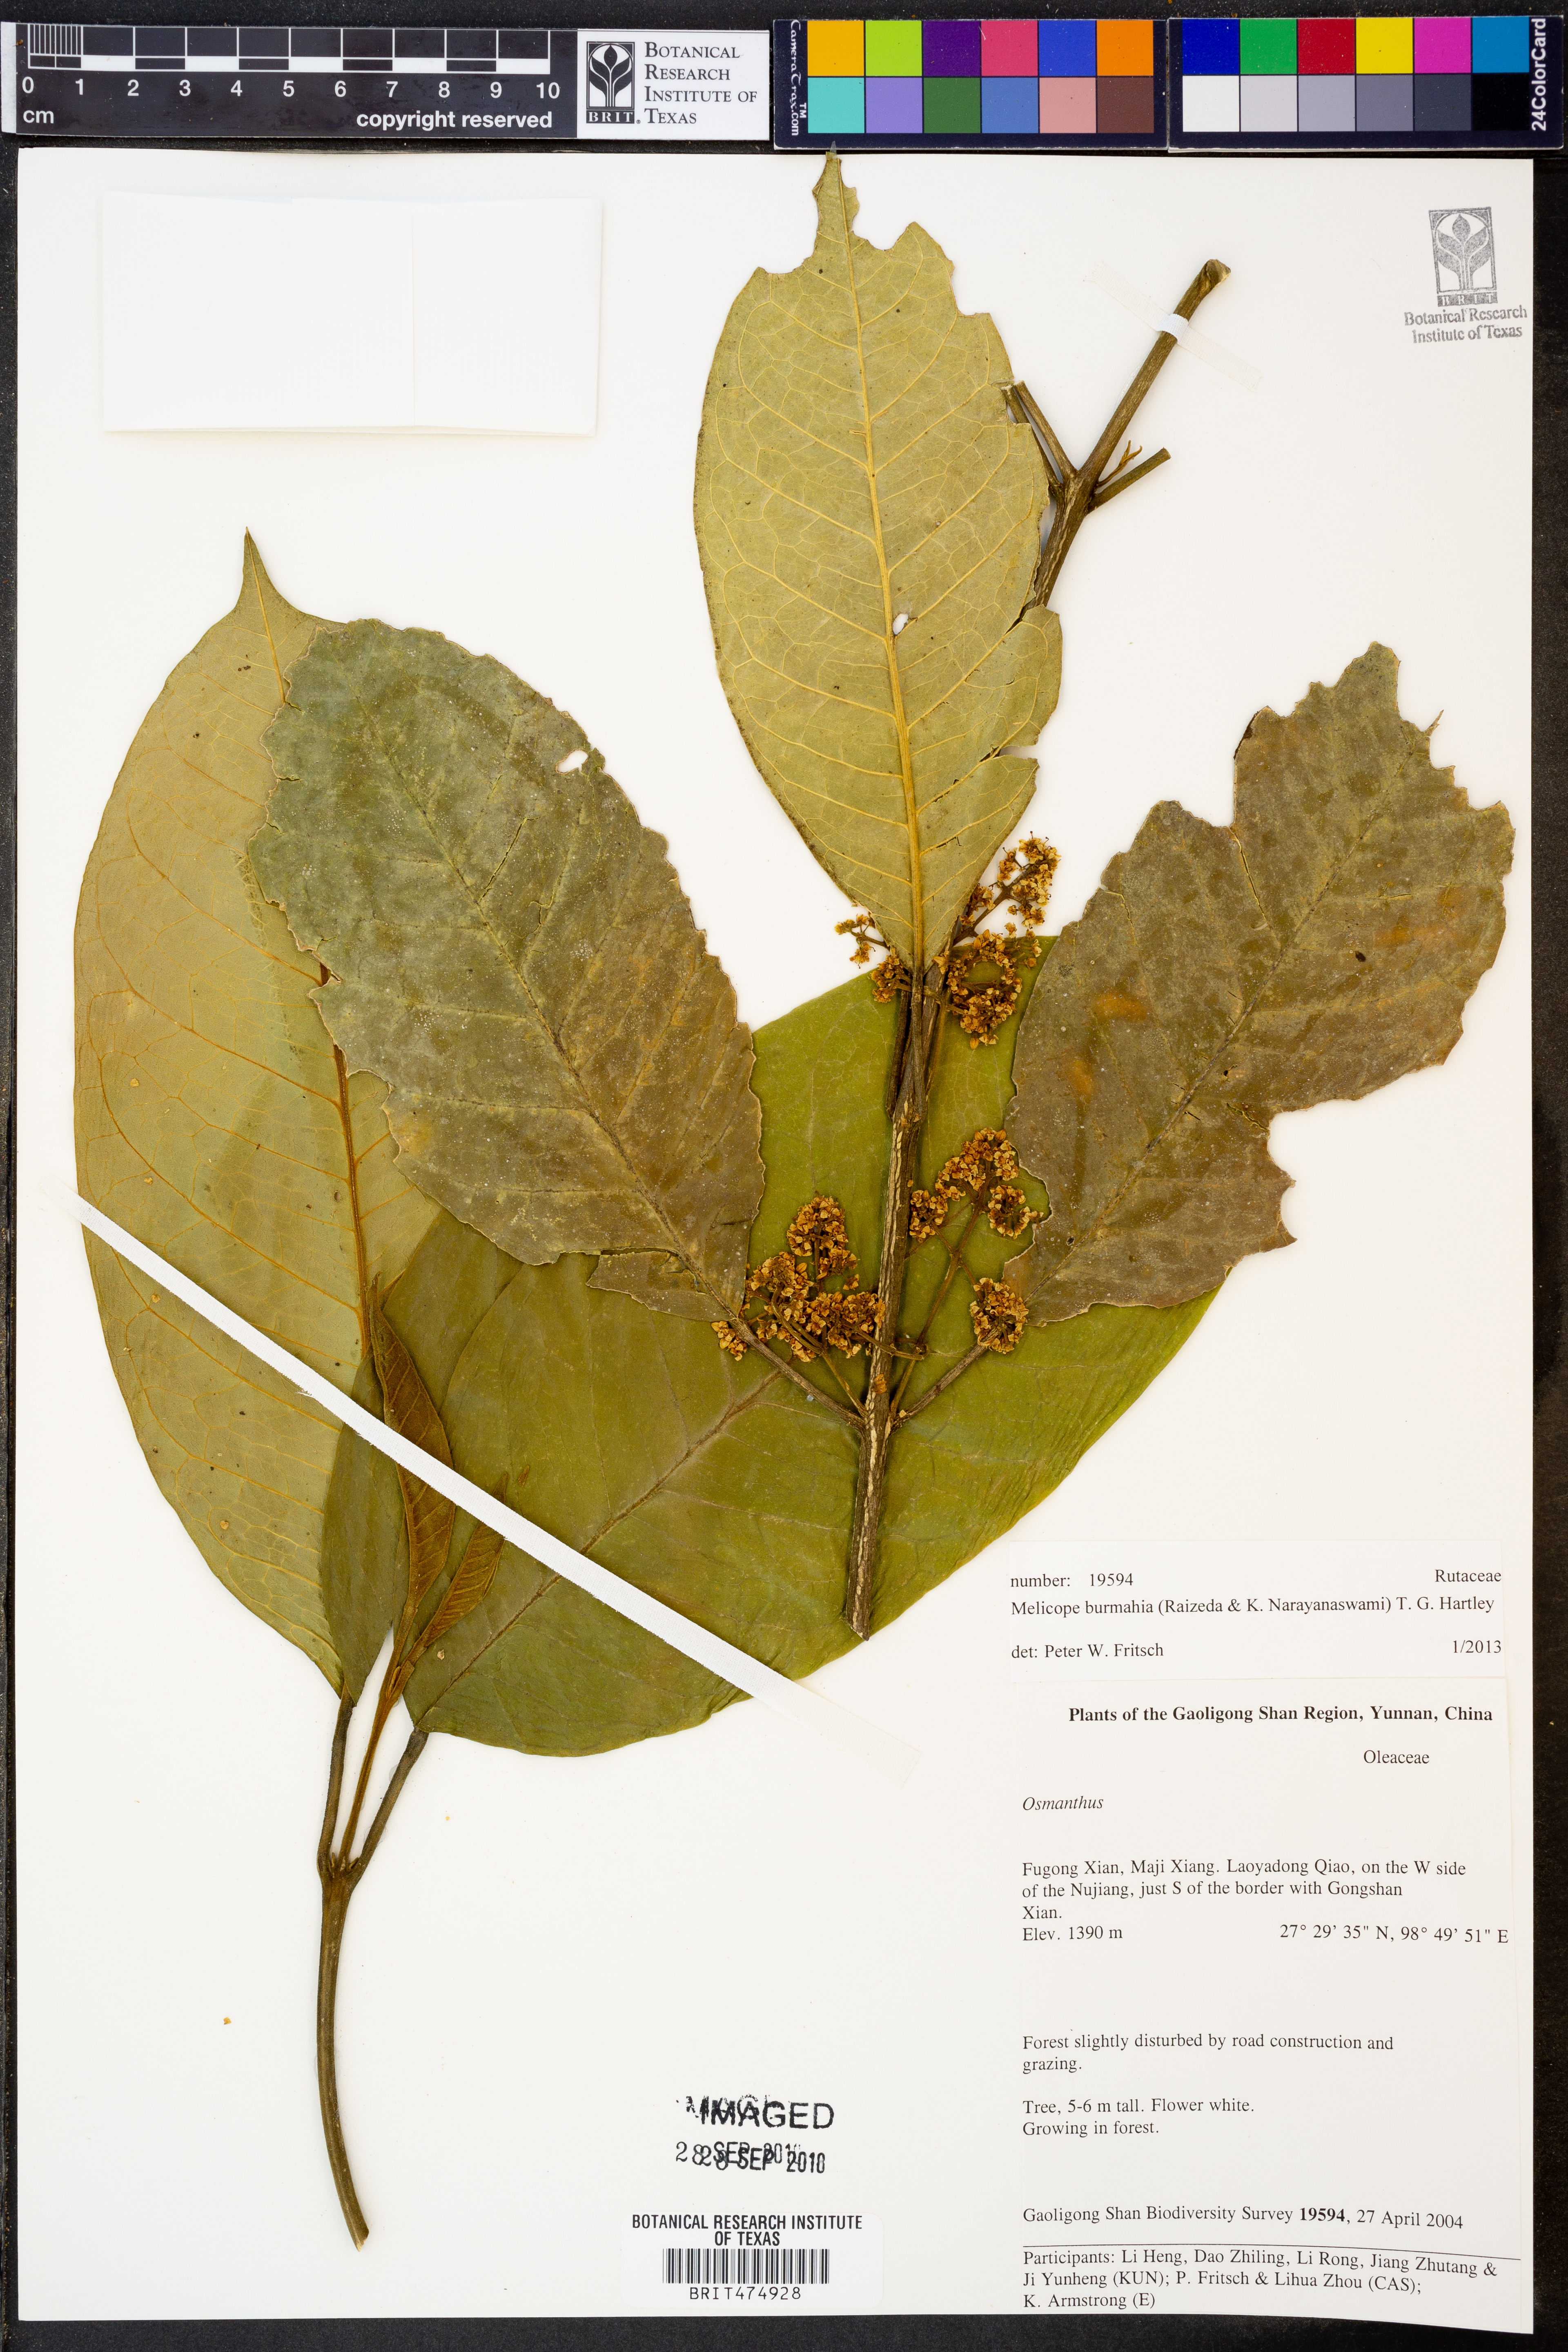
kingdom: Plantae
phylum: Tracheophyta
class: Magnoliopsida
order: Sapindales
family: Rutaceae
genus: Melicope
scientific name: Melicope burmahia
